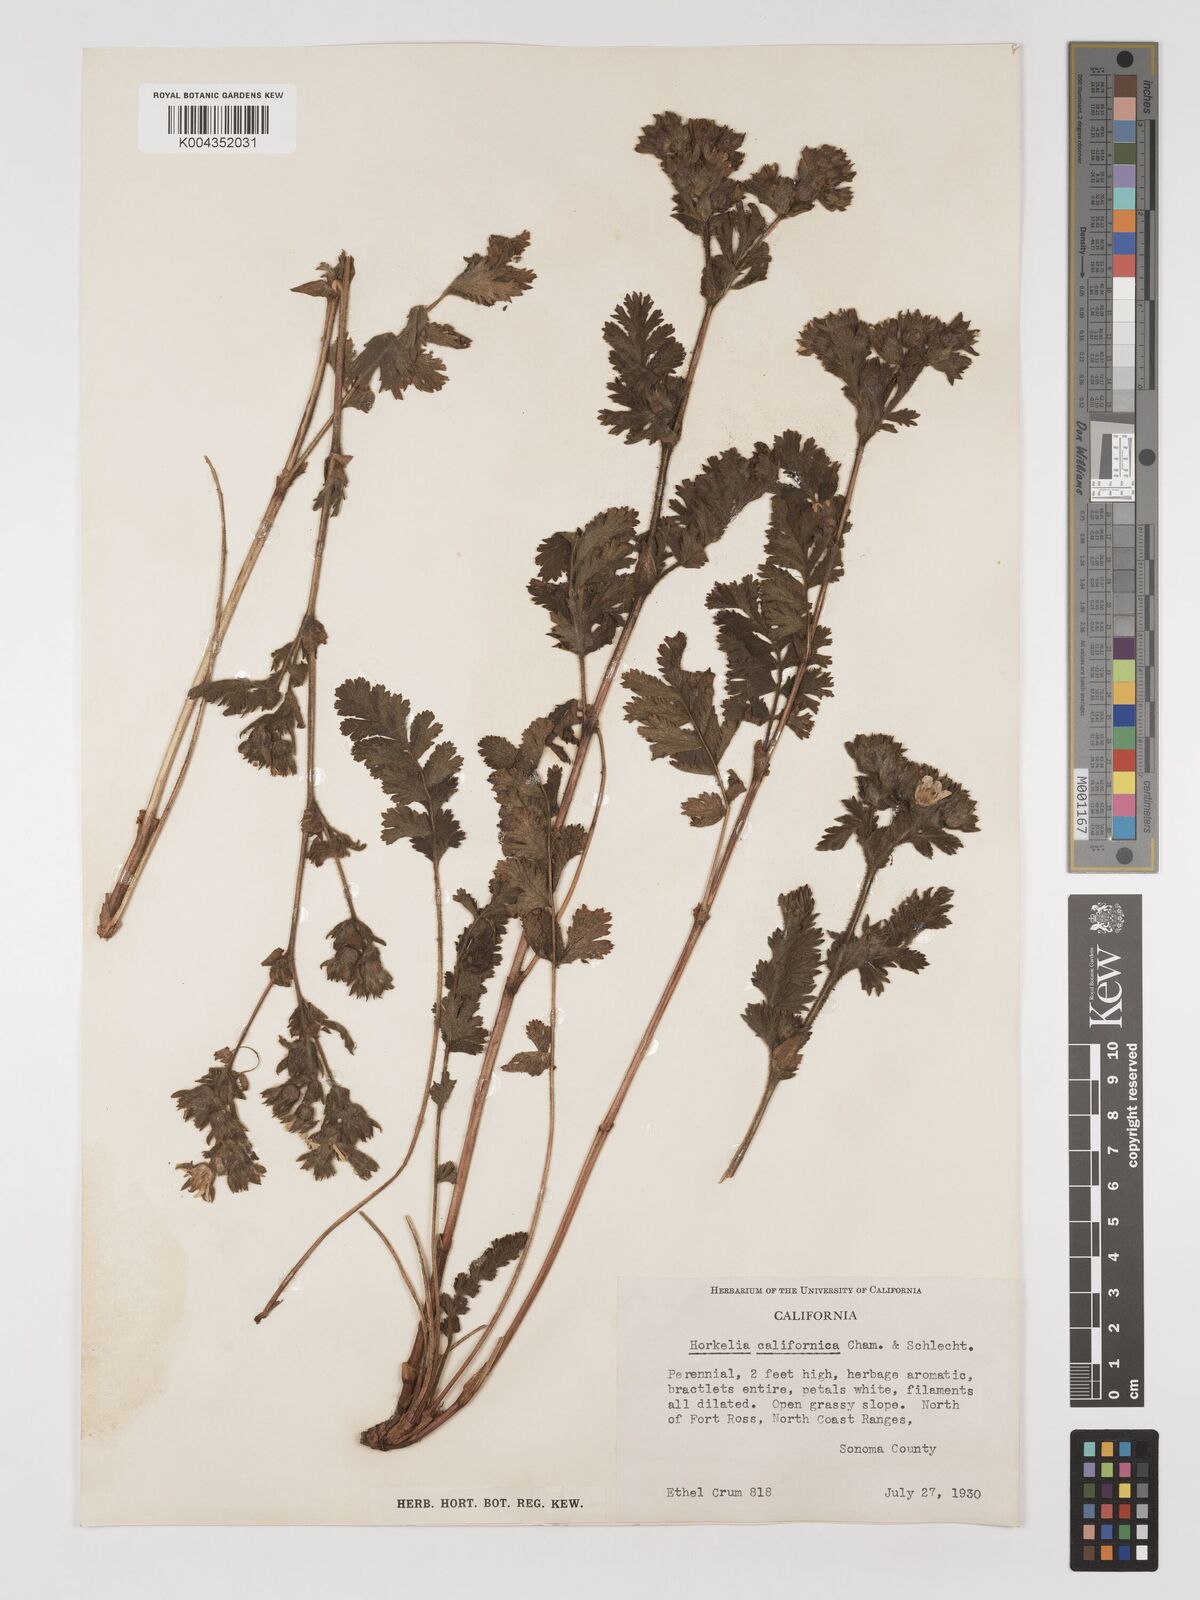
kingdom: Plantae
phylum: Tracheophyta
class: Magnoliopsida
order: Rosales
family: Rosaceae
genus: Potentilla
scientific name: Potentilla californica
